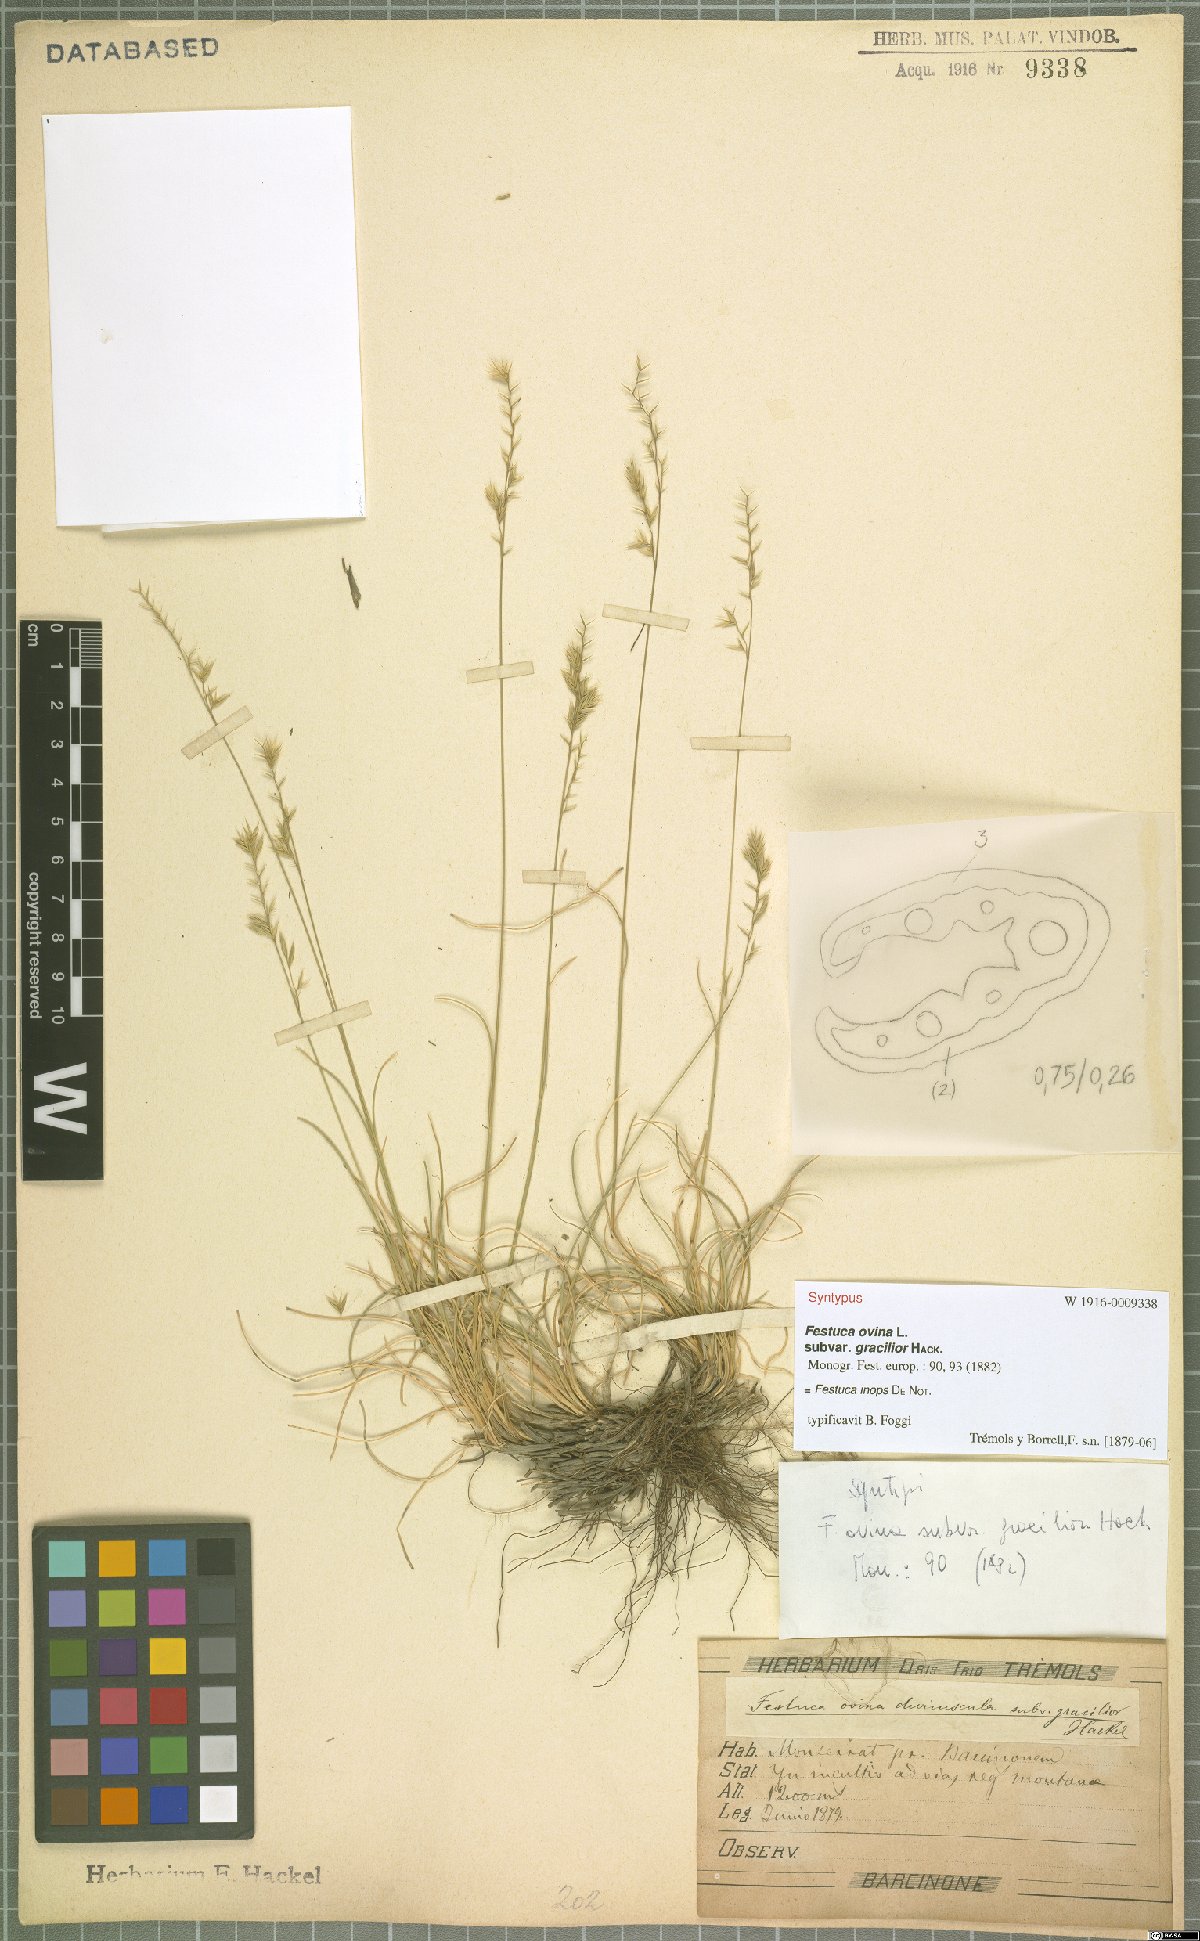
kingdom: Plantae
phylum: Tracheophyta
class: Liliopsida
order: Poales
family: Poaceae
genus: Festuca
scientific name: Festuca inops
